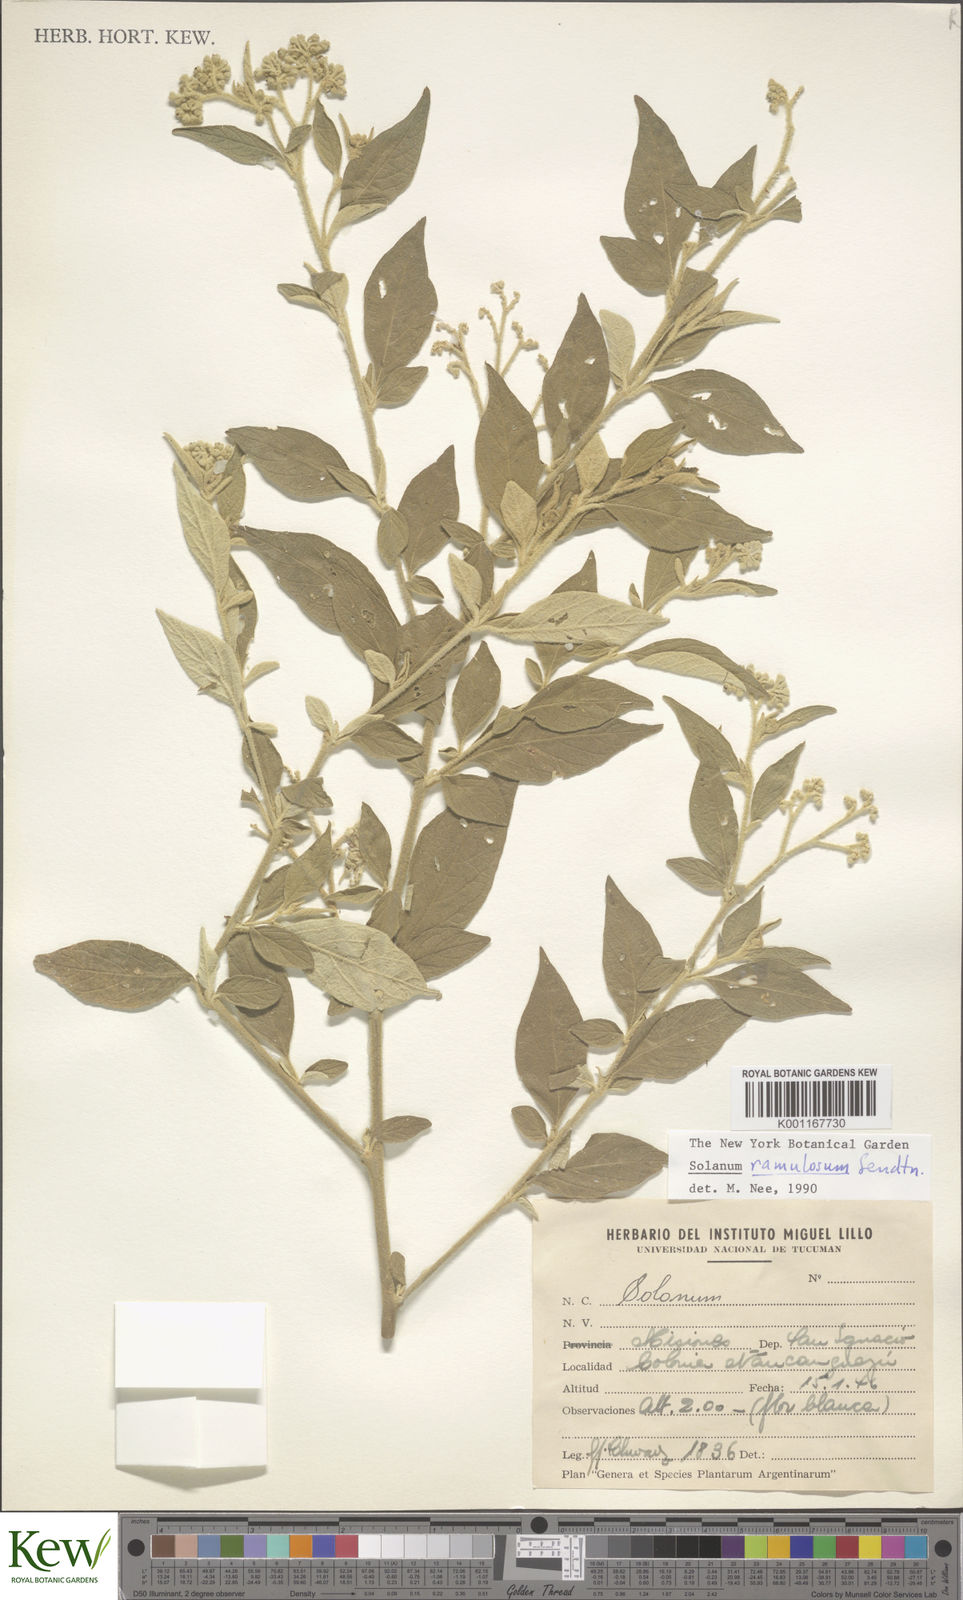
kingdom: Plantae
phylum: Tracheophyta
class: Magnoliopsida
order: Solanales
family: Solanaceae
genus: Solanum
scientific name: Solanum ramulosum
